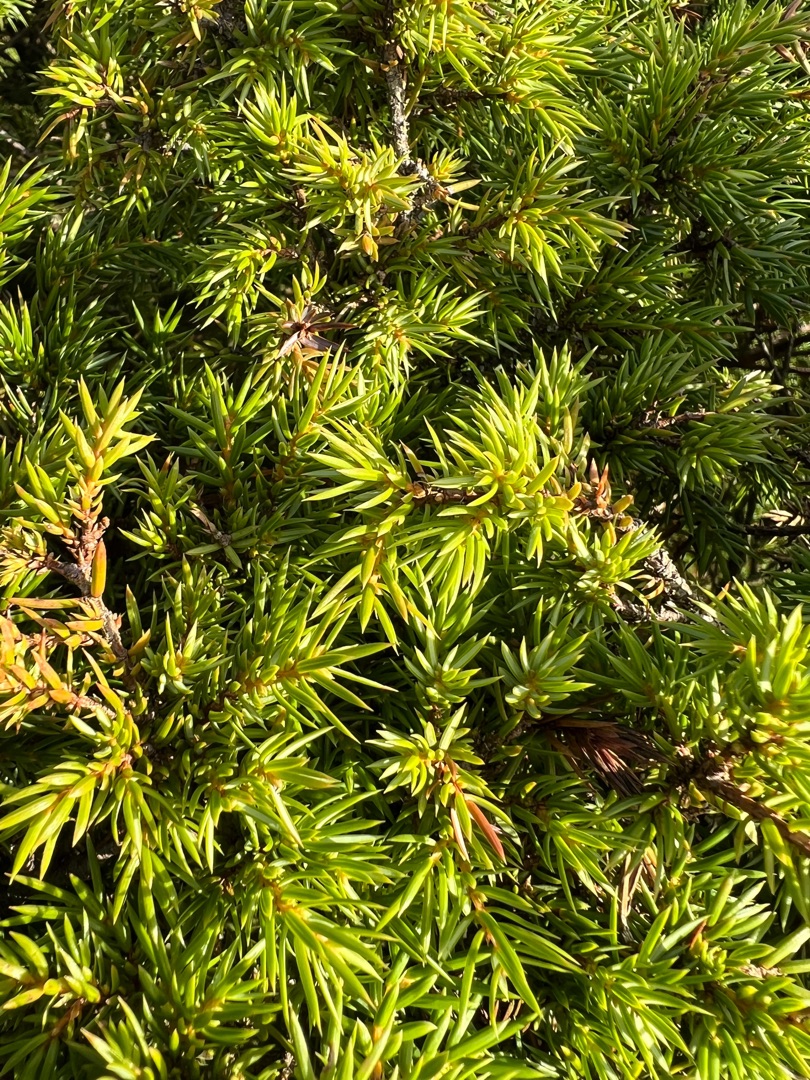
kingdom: Plantae
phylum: Tracheophyta
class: Pinopsida
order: Pinales
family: Cupressaceae
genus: Juniperus
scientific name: Juniperus communis
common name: Almindelig ene
